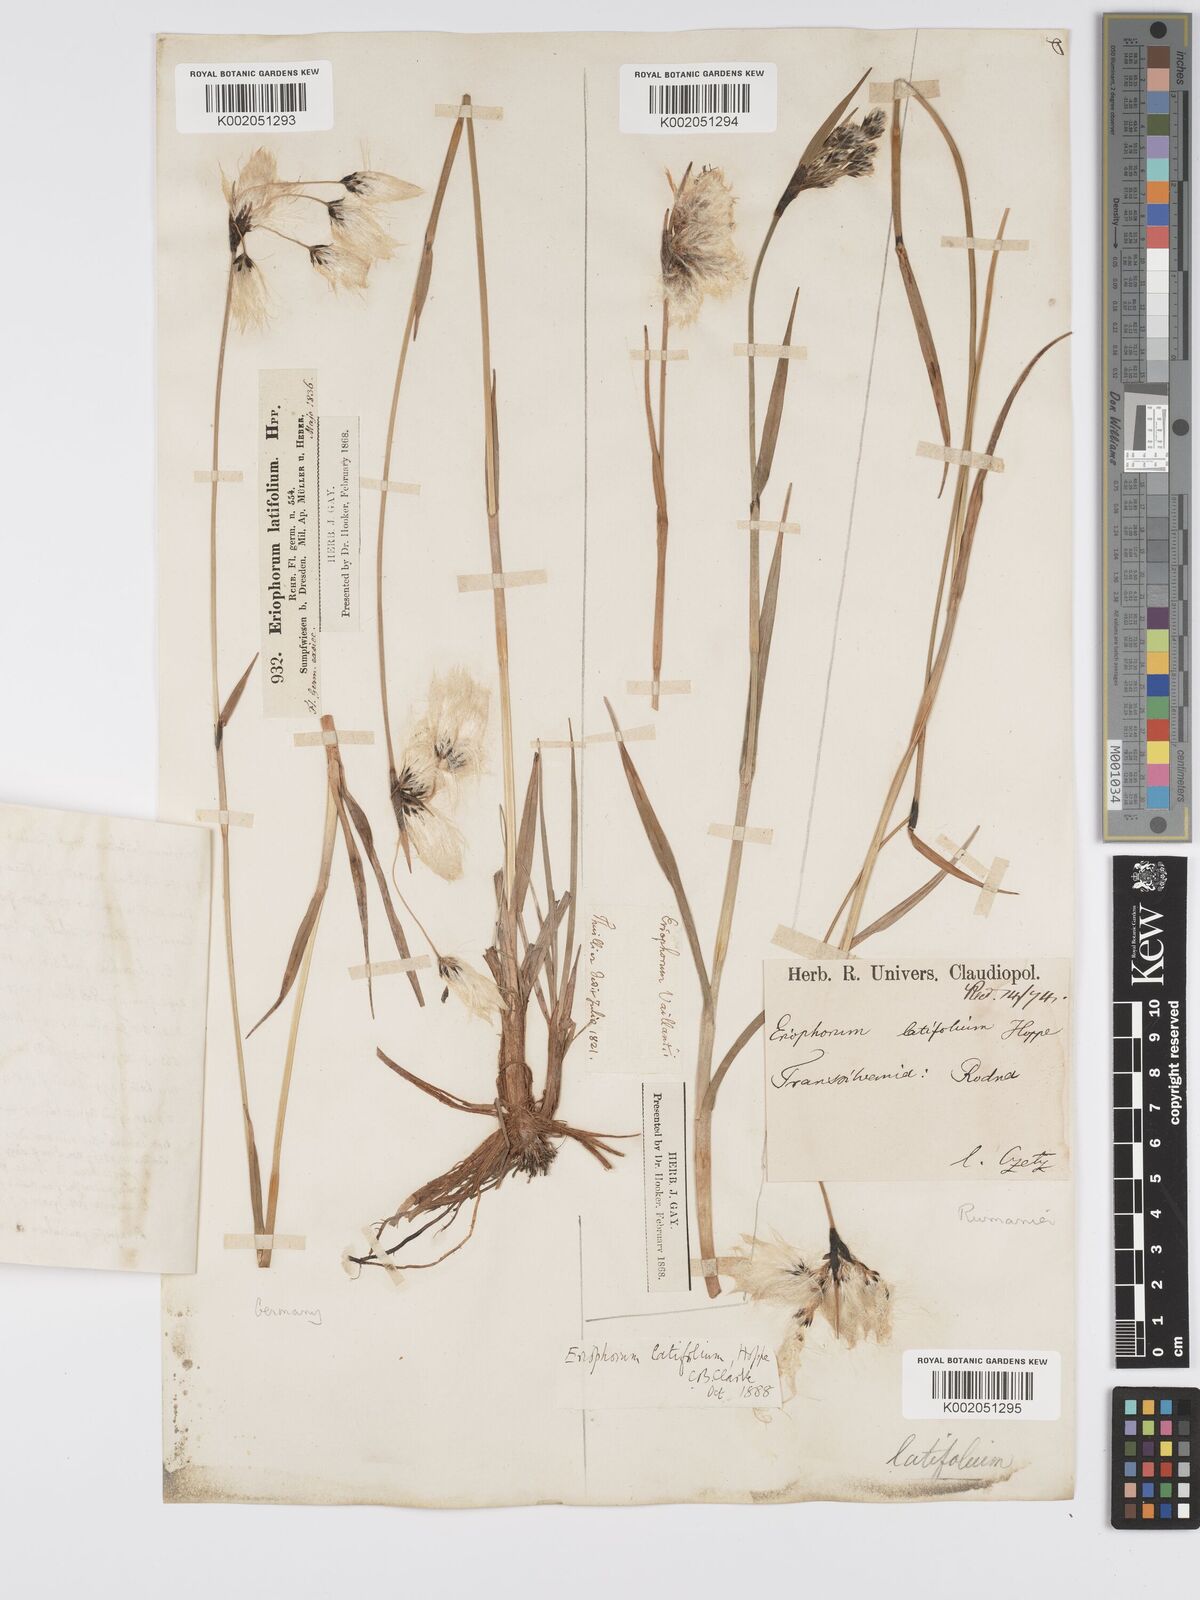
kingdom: Plantae
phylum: Tracheophyta
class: Liliopsida
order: Poales
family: Cyperaceae
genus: Eriophorum
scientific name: Eriophorum latifolium
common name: Broad-leaved cottongrass
